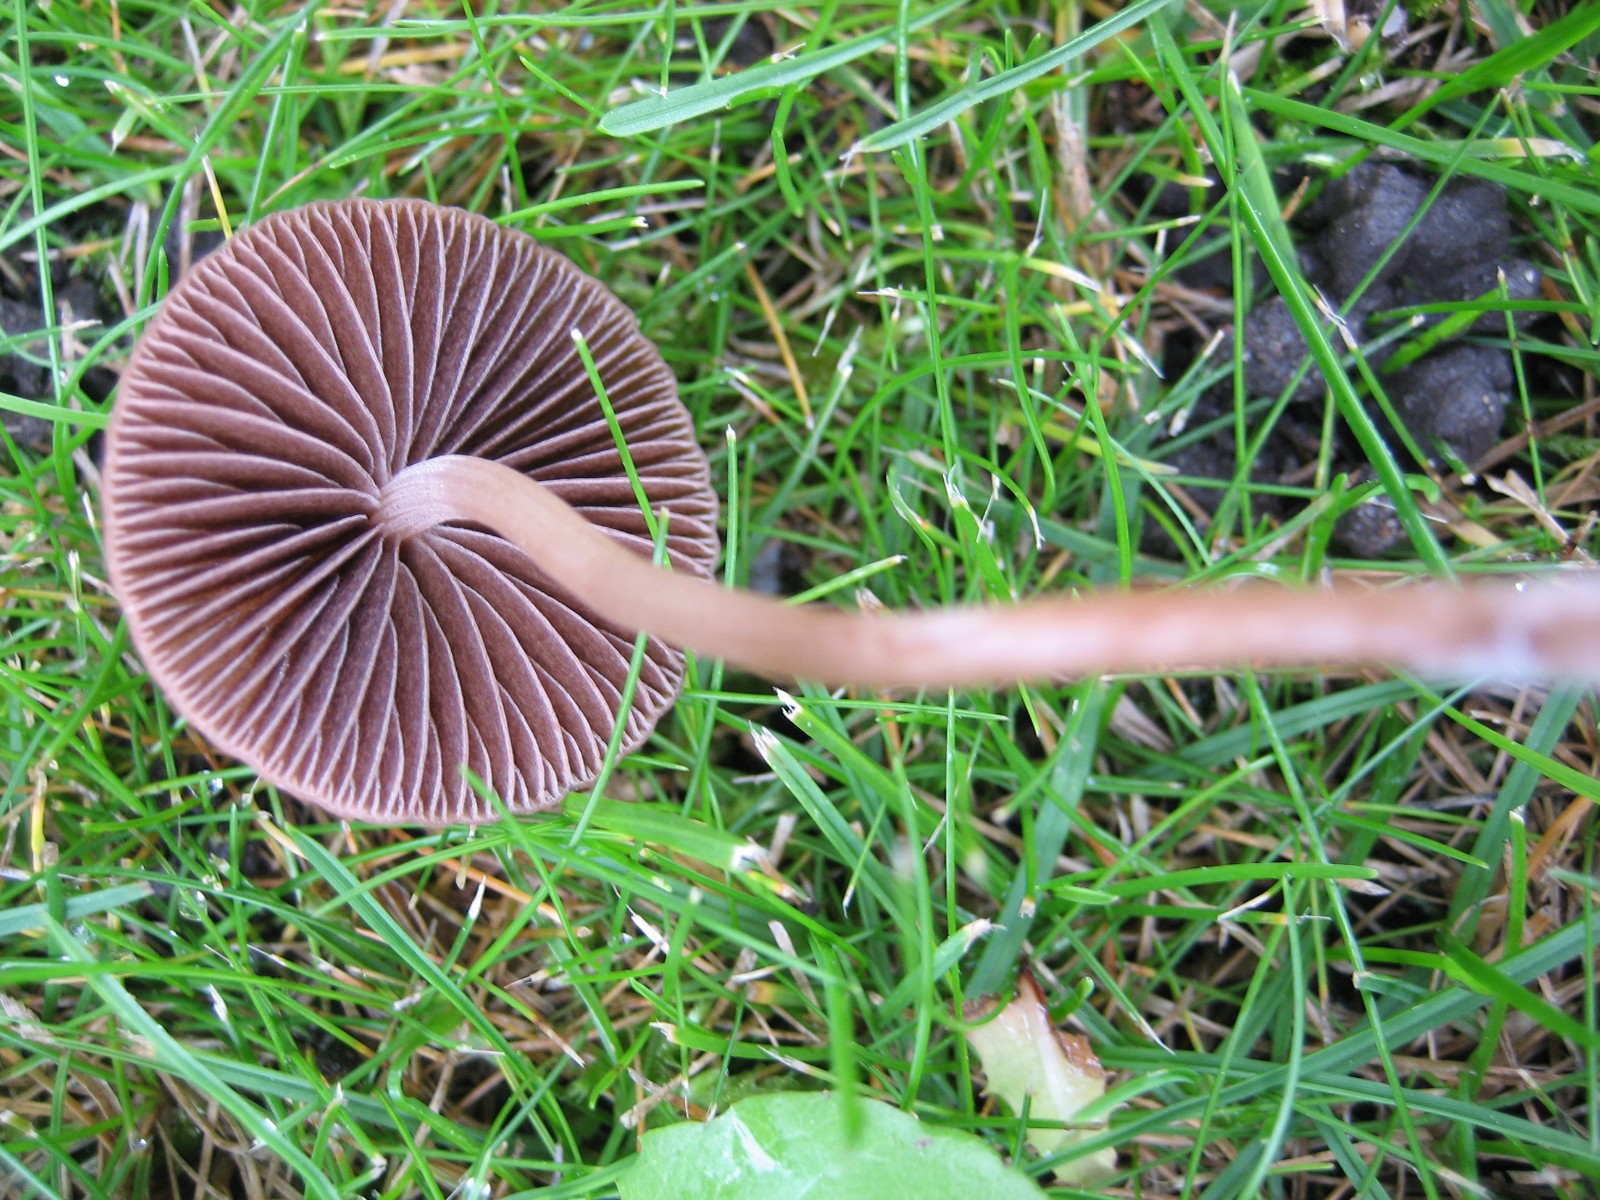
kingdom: Fungi
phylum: Basidiomycota
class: Agaricomycetes
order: Agaricales
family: Bolbitiaceae
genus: Panaeolina
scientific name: Panaeolina foenisecii
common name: høslætsvamp
